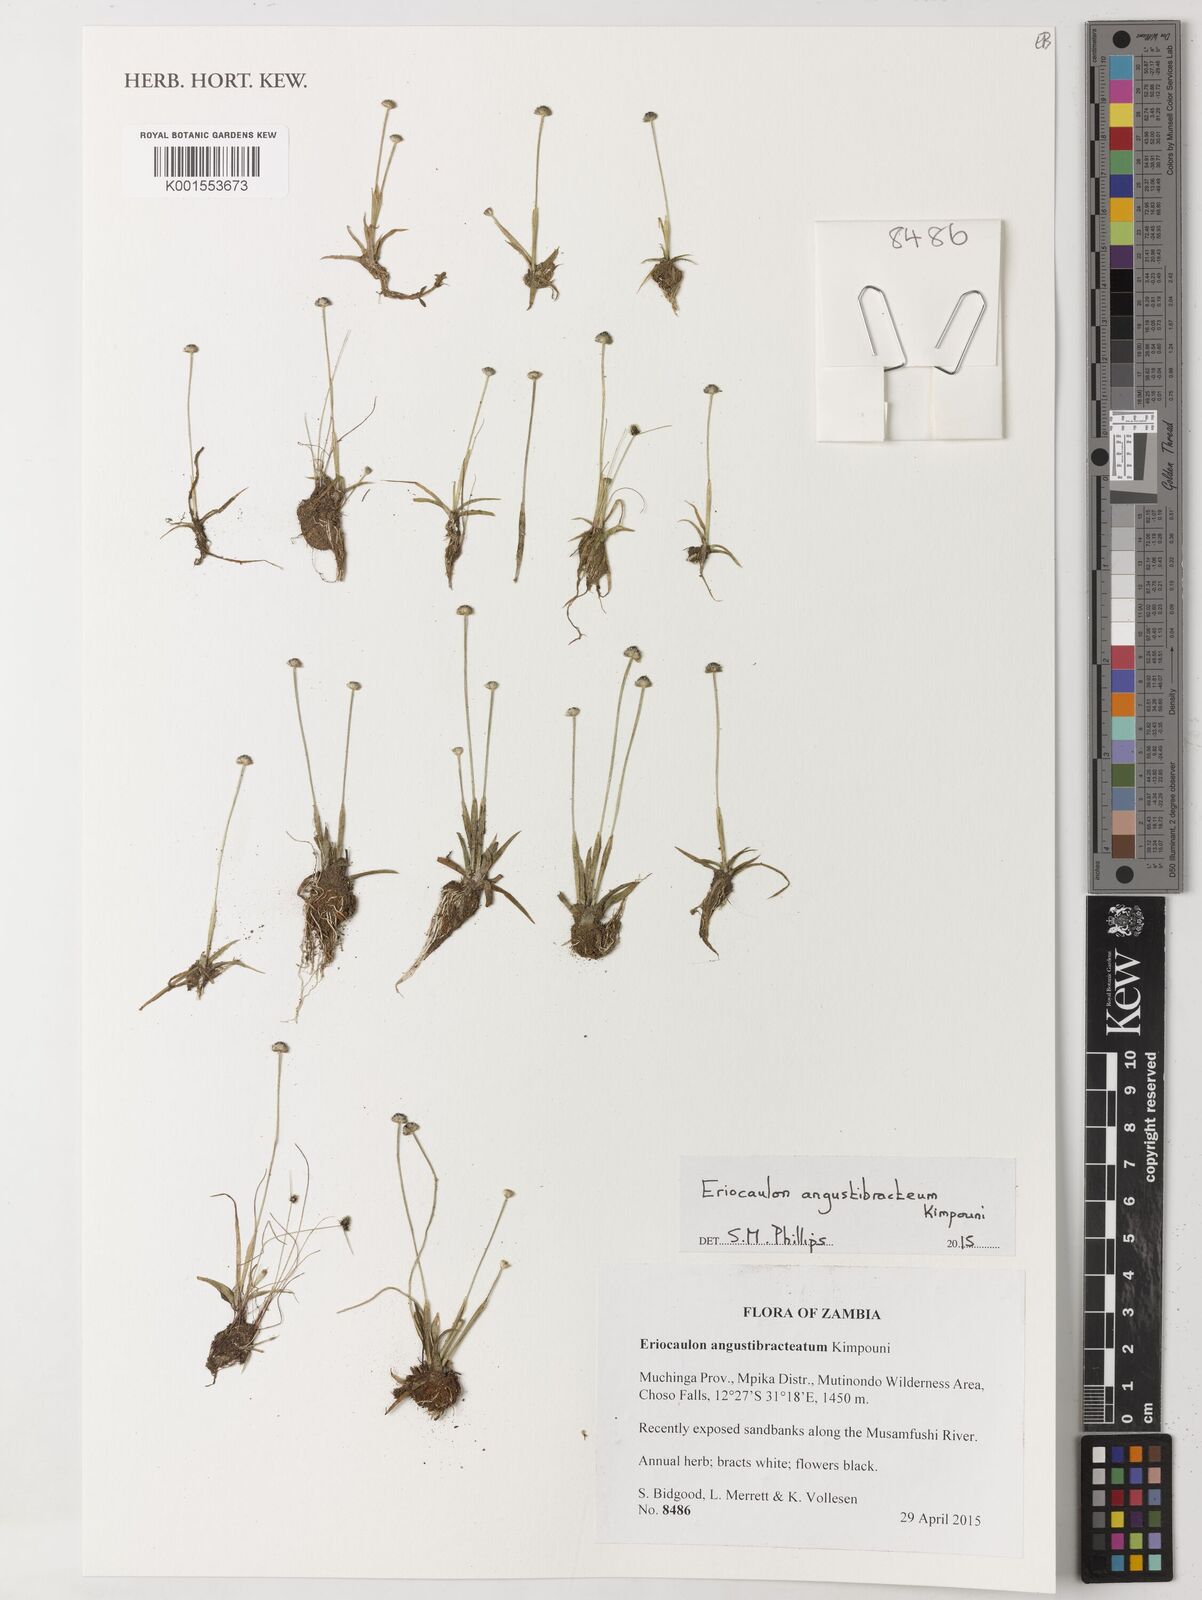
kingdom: Plantae
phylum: Tracheophyta
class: Liliopsida
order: Poales
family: Eriocaulaceae
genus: Eriocaulon
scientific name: Eriocaulon angustibracteum
